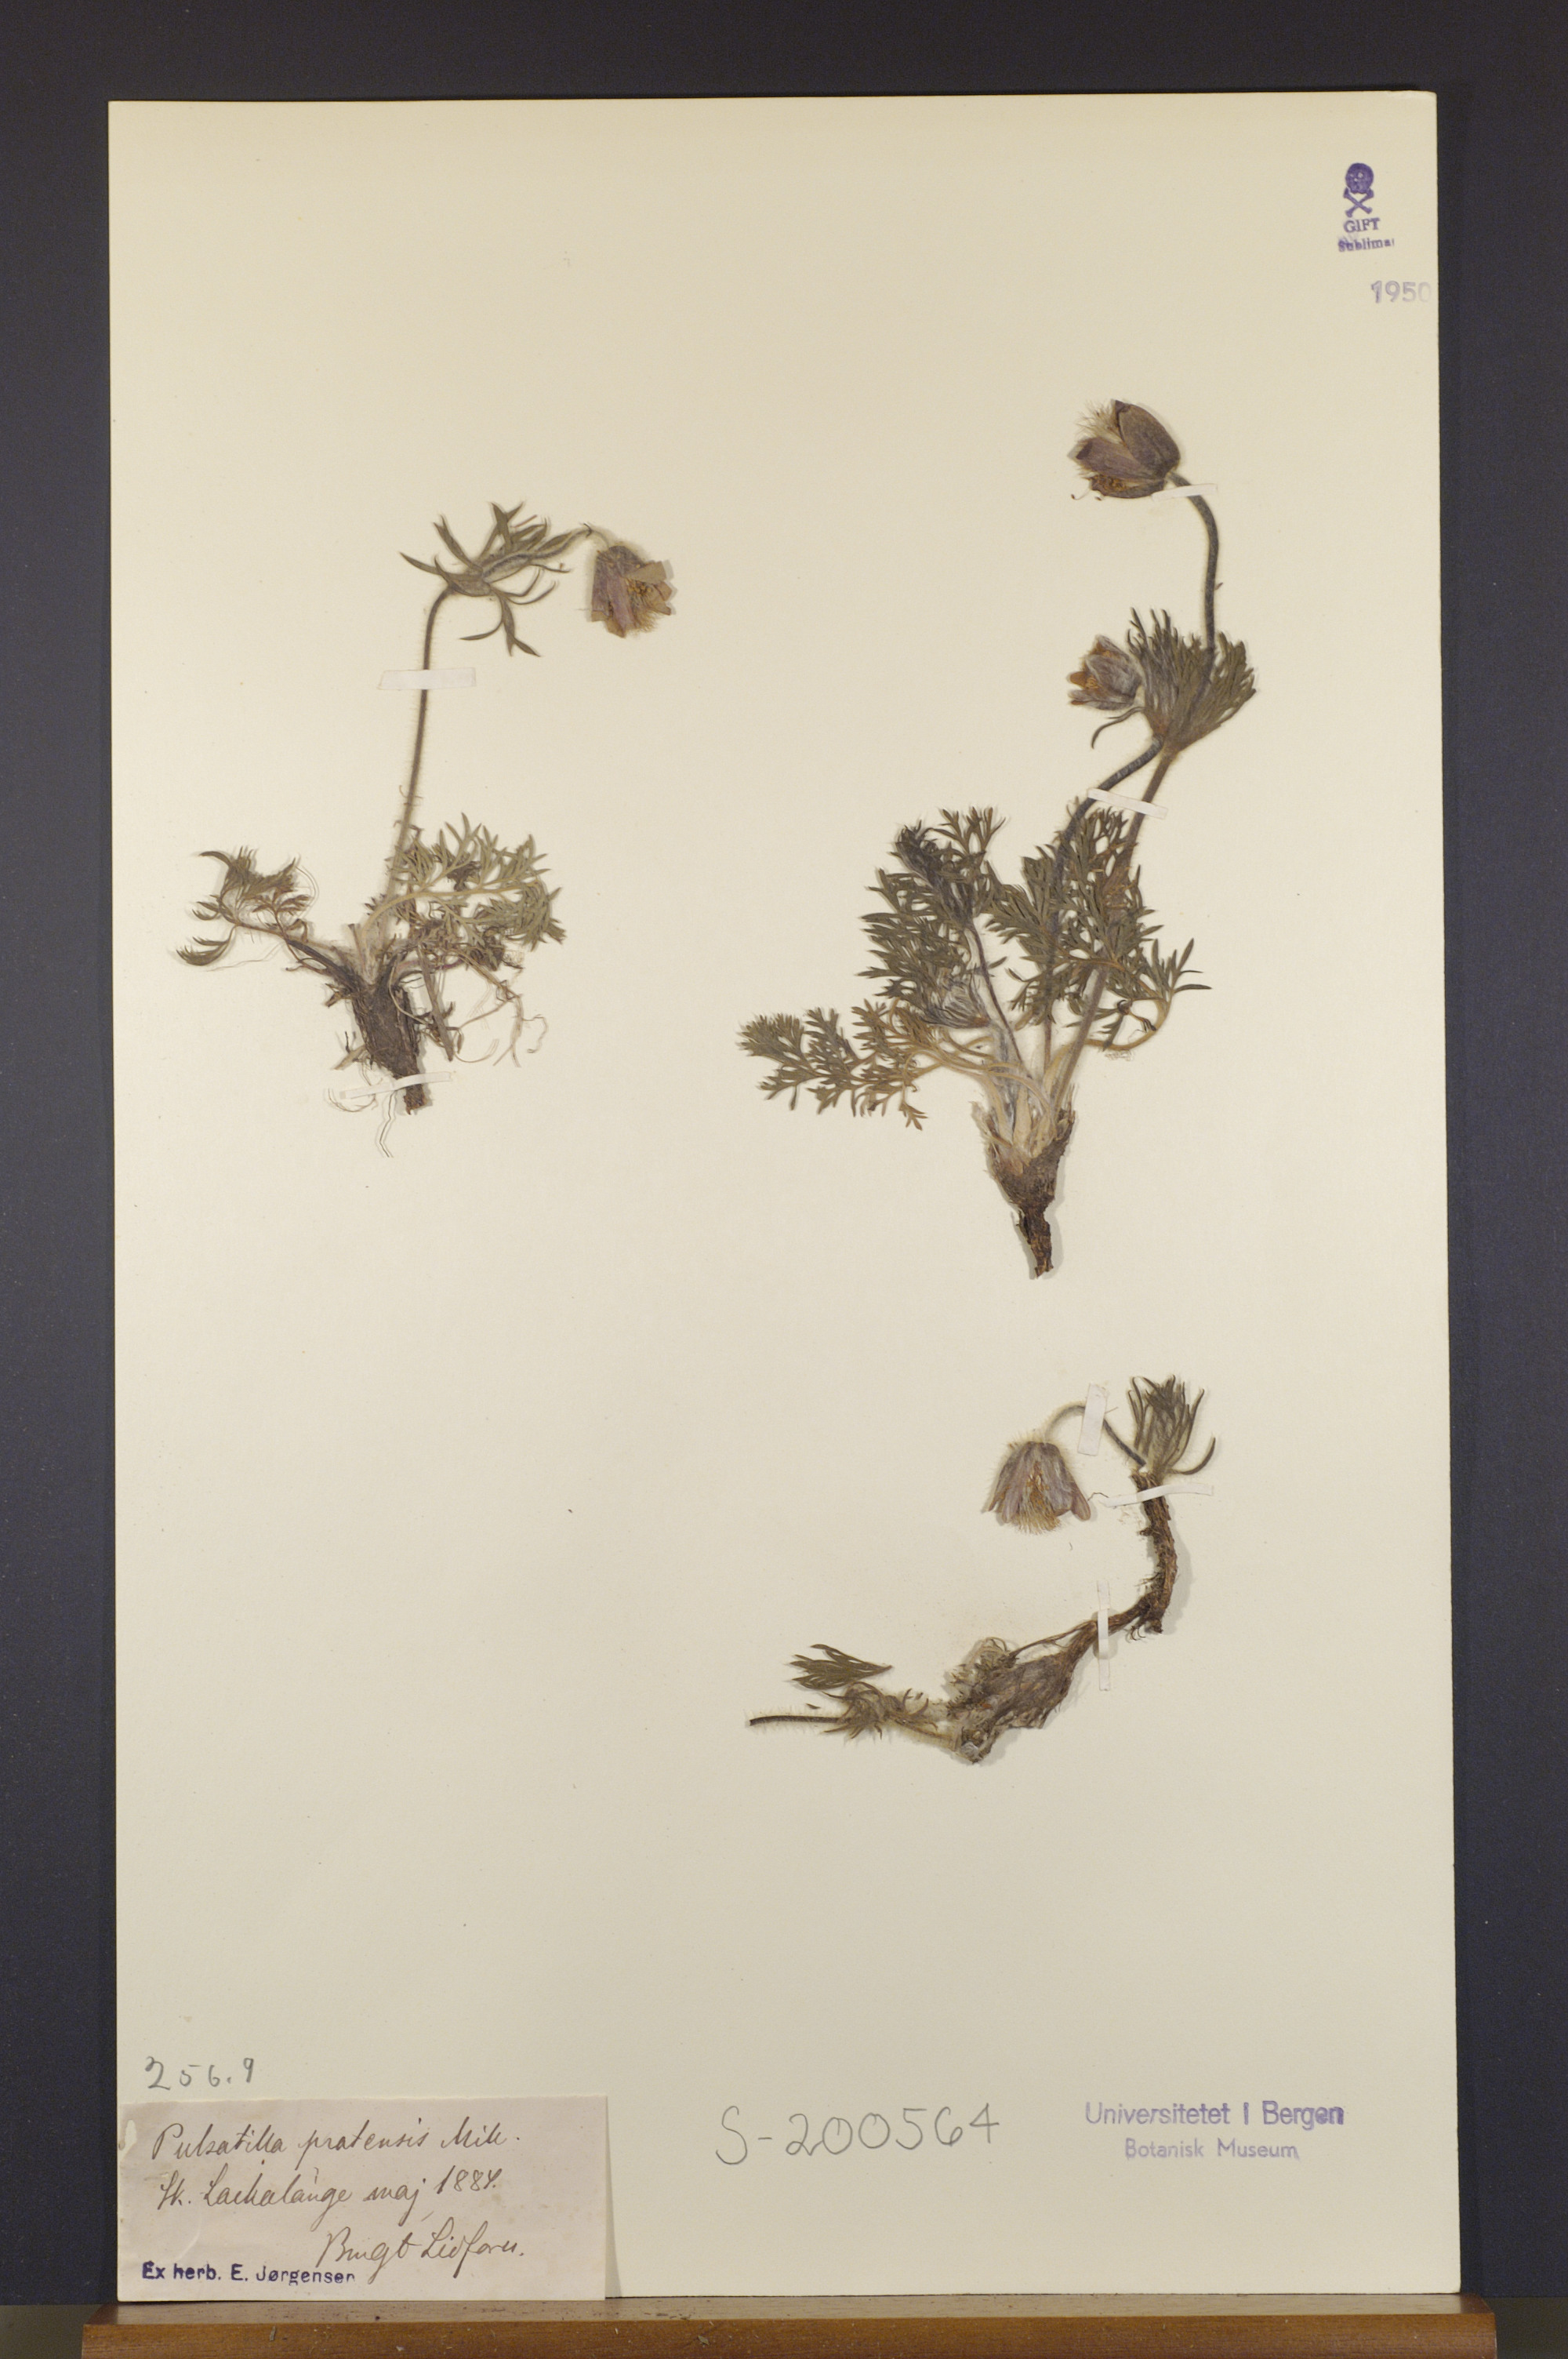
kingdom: Plantae
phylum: Tracheophyta
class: Magnoliopsida
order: Ranunculales
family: Ranunculaceae
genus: Pulsatilla
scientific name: Pulsatilla pratensis
